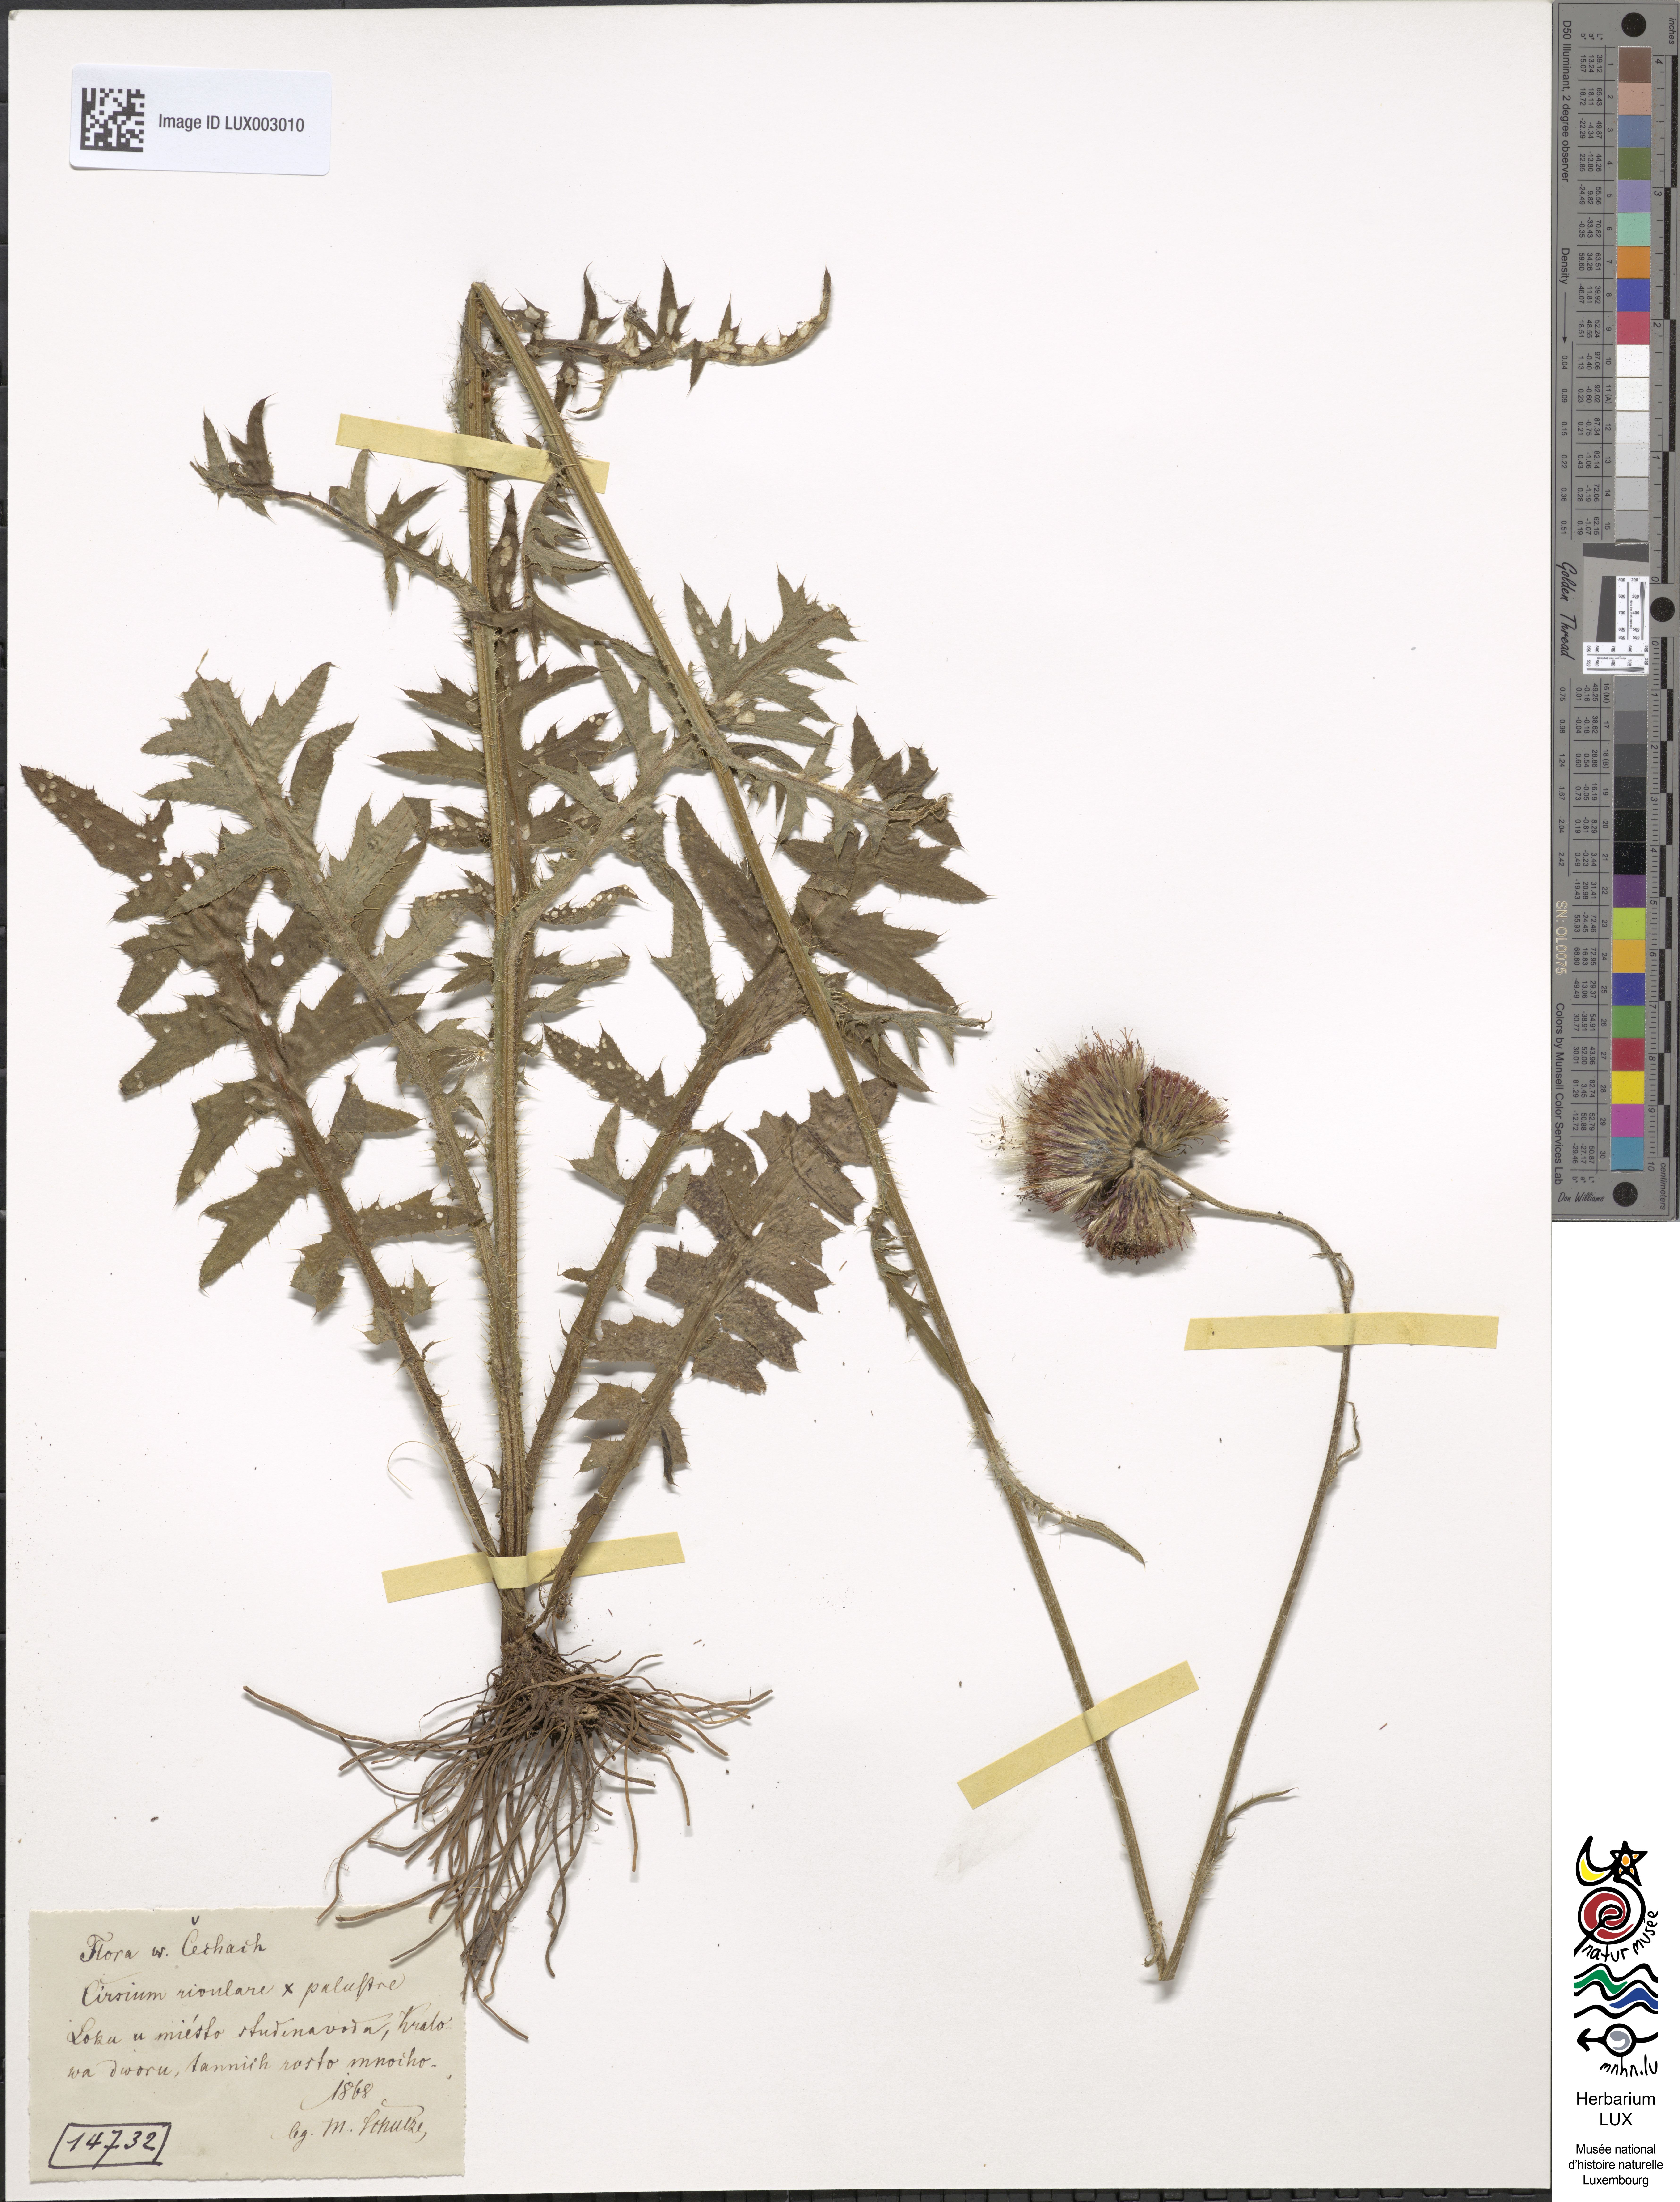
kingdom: Plantae
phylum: Tracheophyta
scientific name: Tracheophyta
